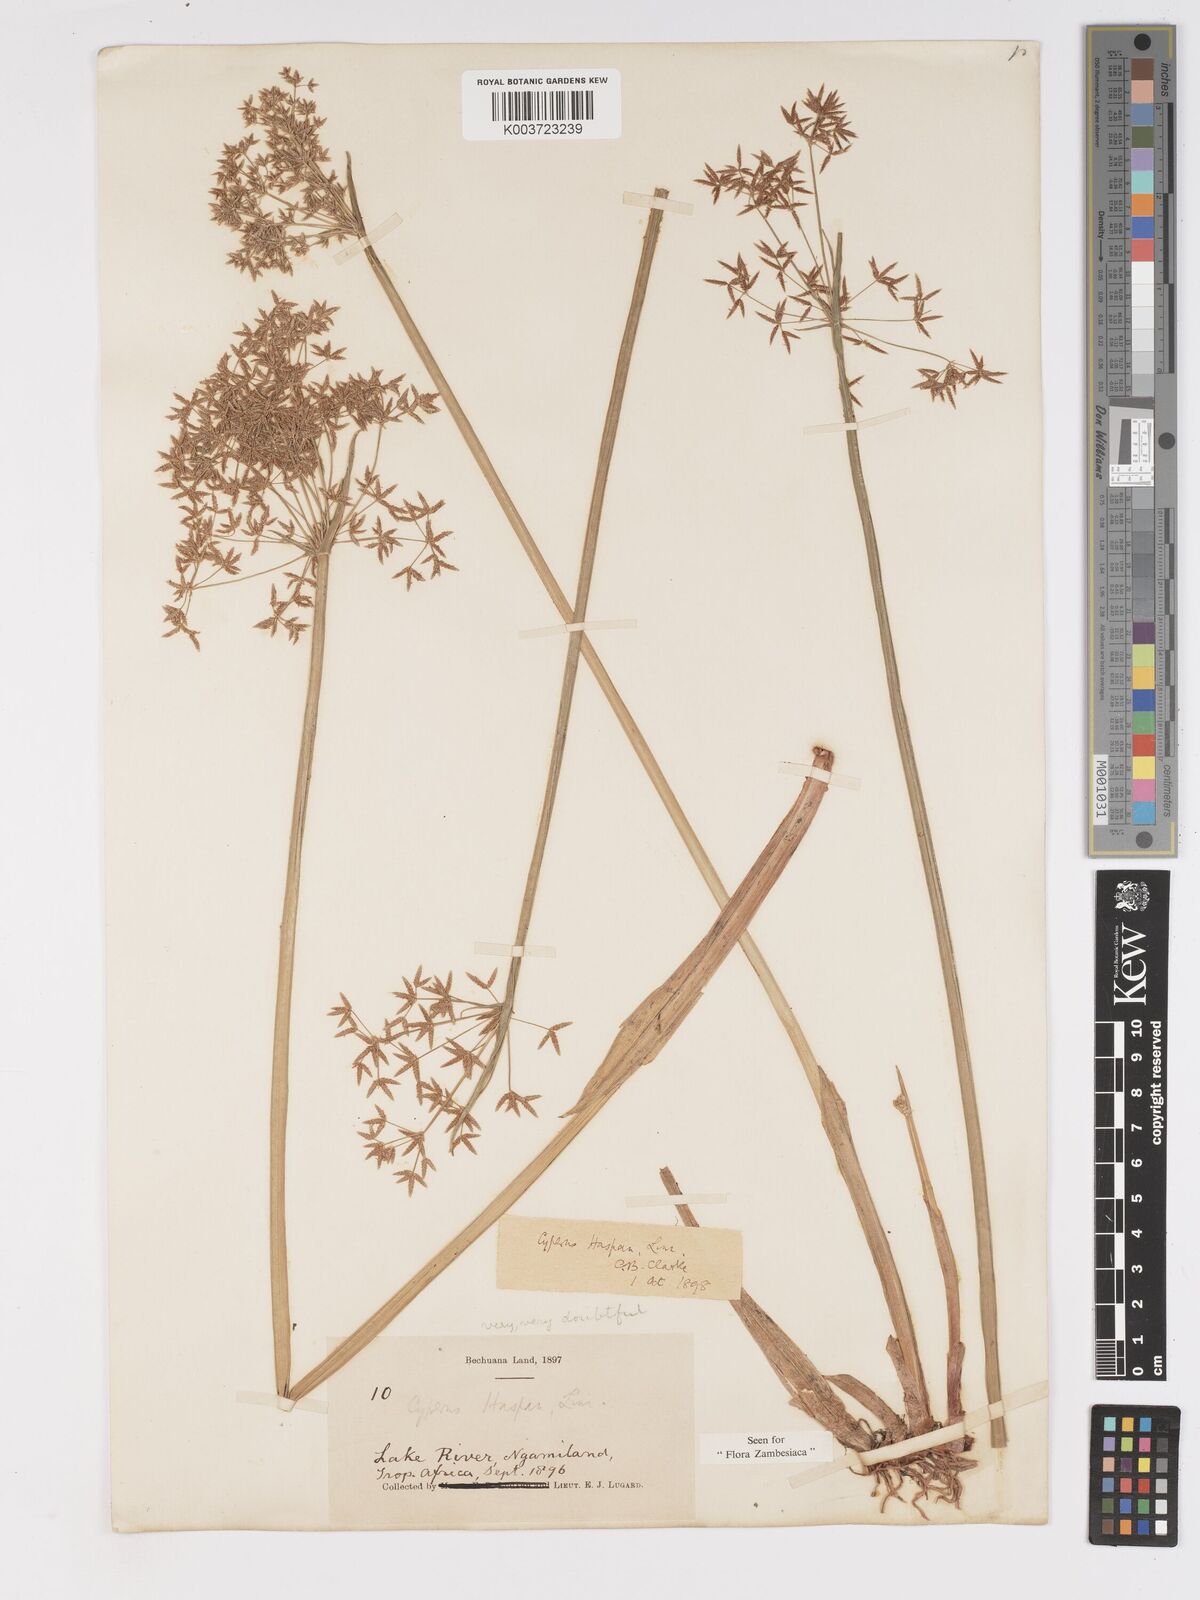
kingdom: Plantae
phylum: Tracheophyta
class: Liliopsida
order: Poales
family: Cyperaceae
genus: Cyperus
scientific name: Cyperus platycaulis
